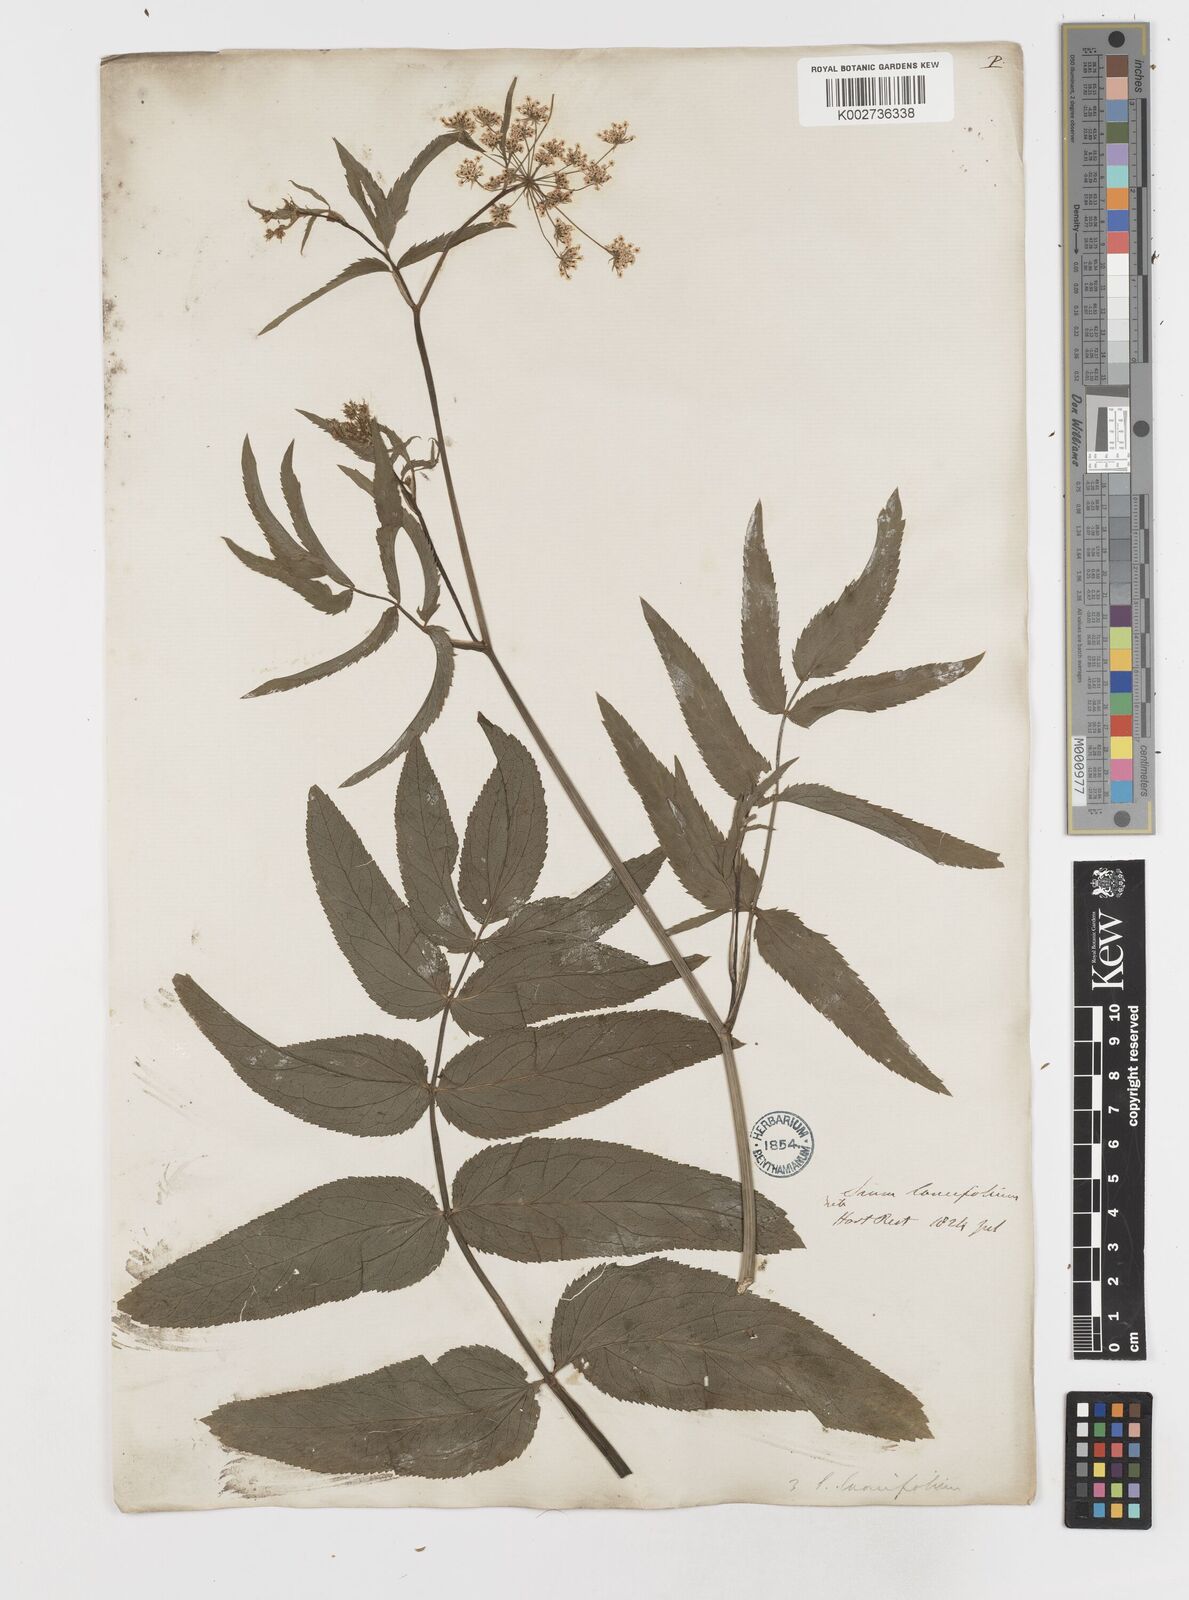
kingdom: Plantae
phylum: Tracheophyta
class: Magnoliopsida
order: Apiales
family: Apiaceae
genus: Sium
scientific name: Sium sisarum
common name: Skirret
